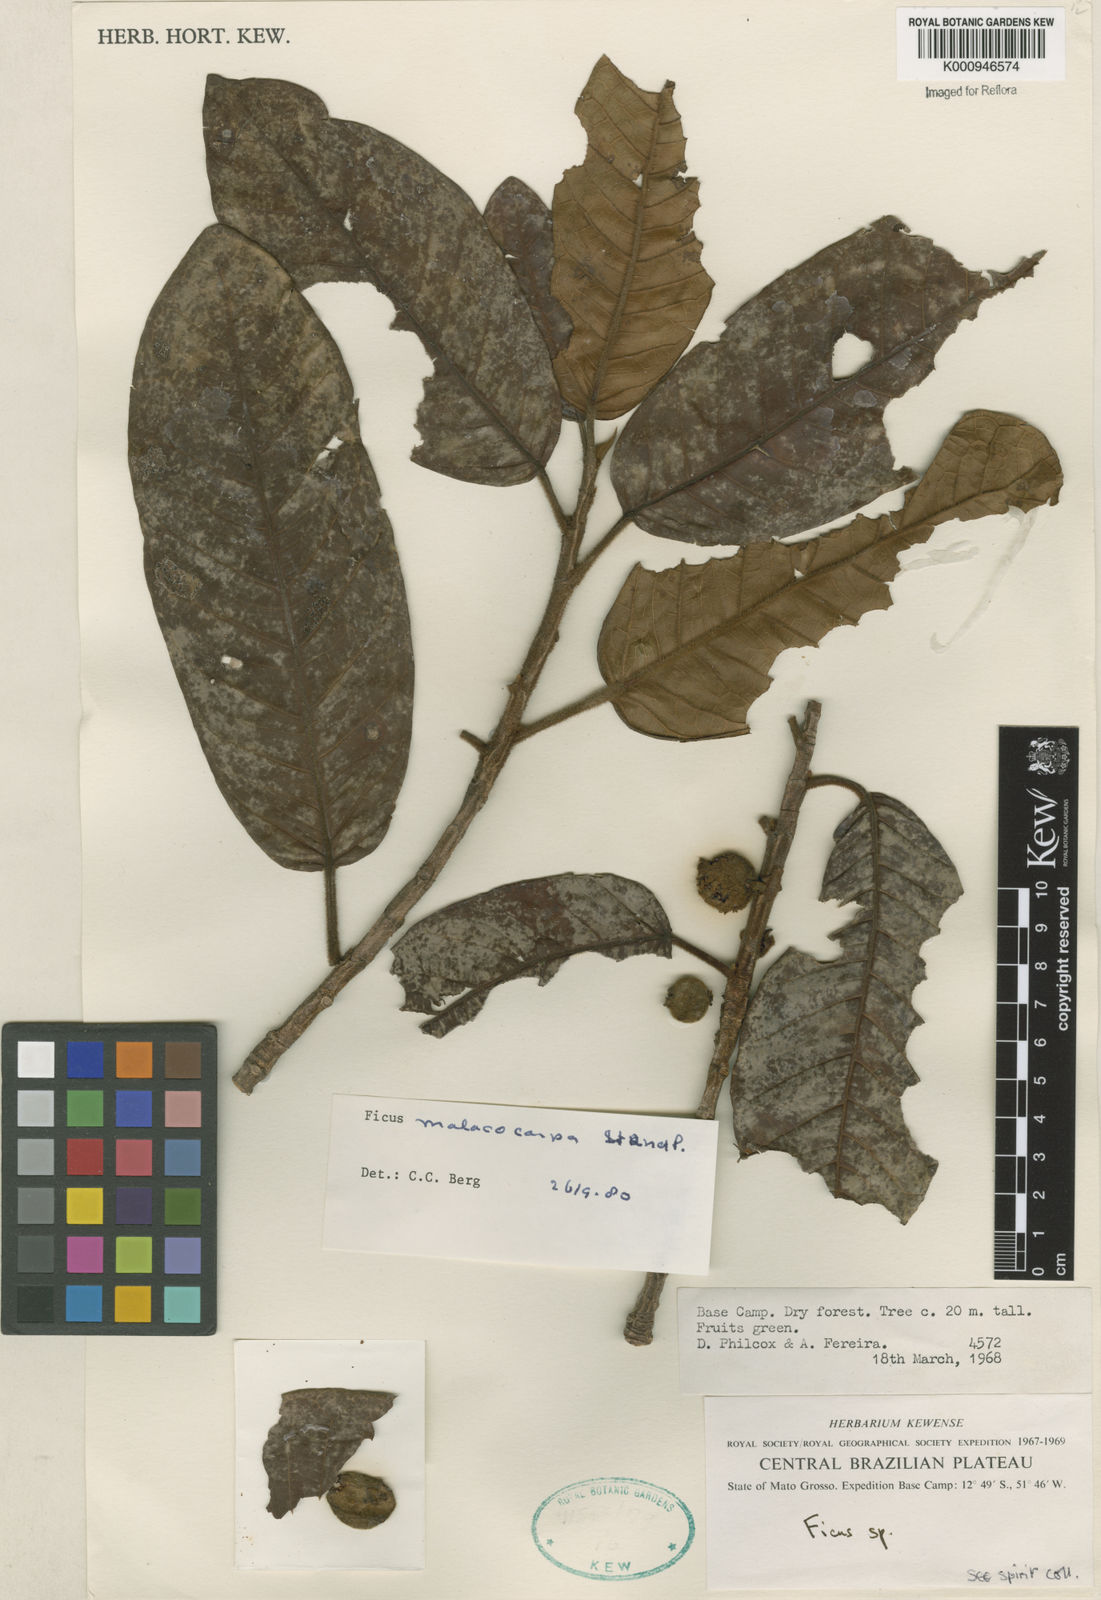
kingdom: Plantae
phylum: Tracheophyta
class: Magnoliopsida
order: Rosales
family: Moraceae
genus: Ficus
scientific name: Ficus popenoei
